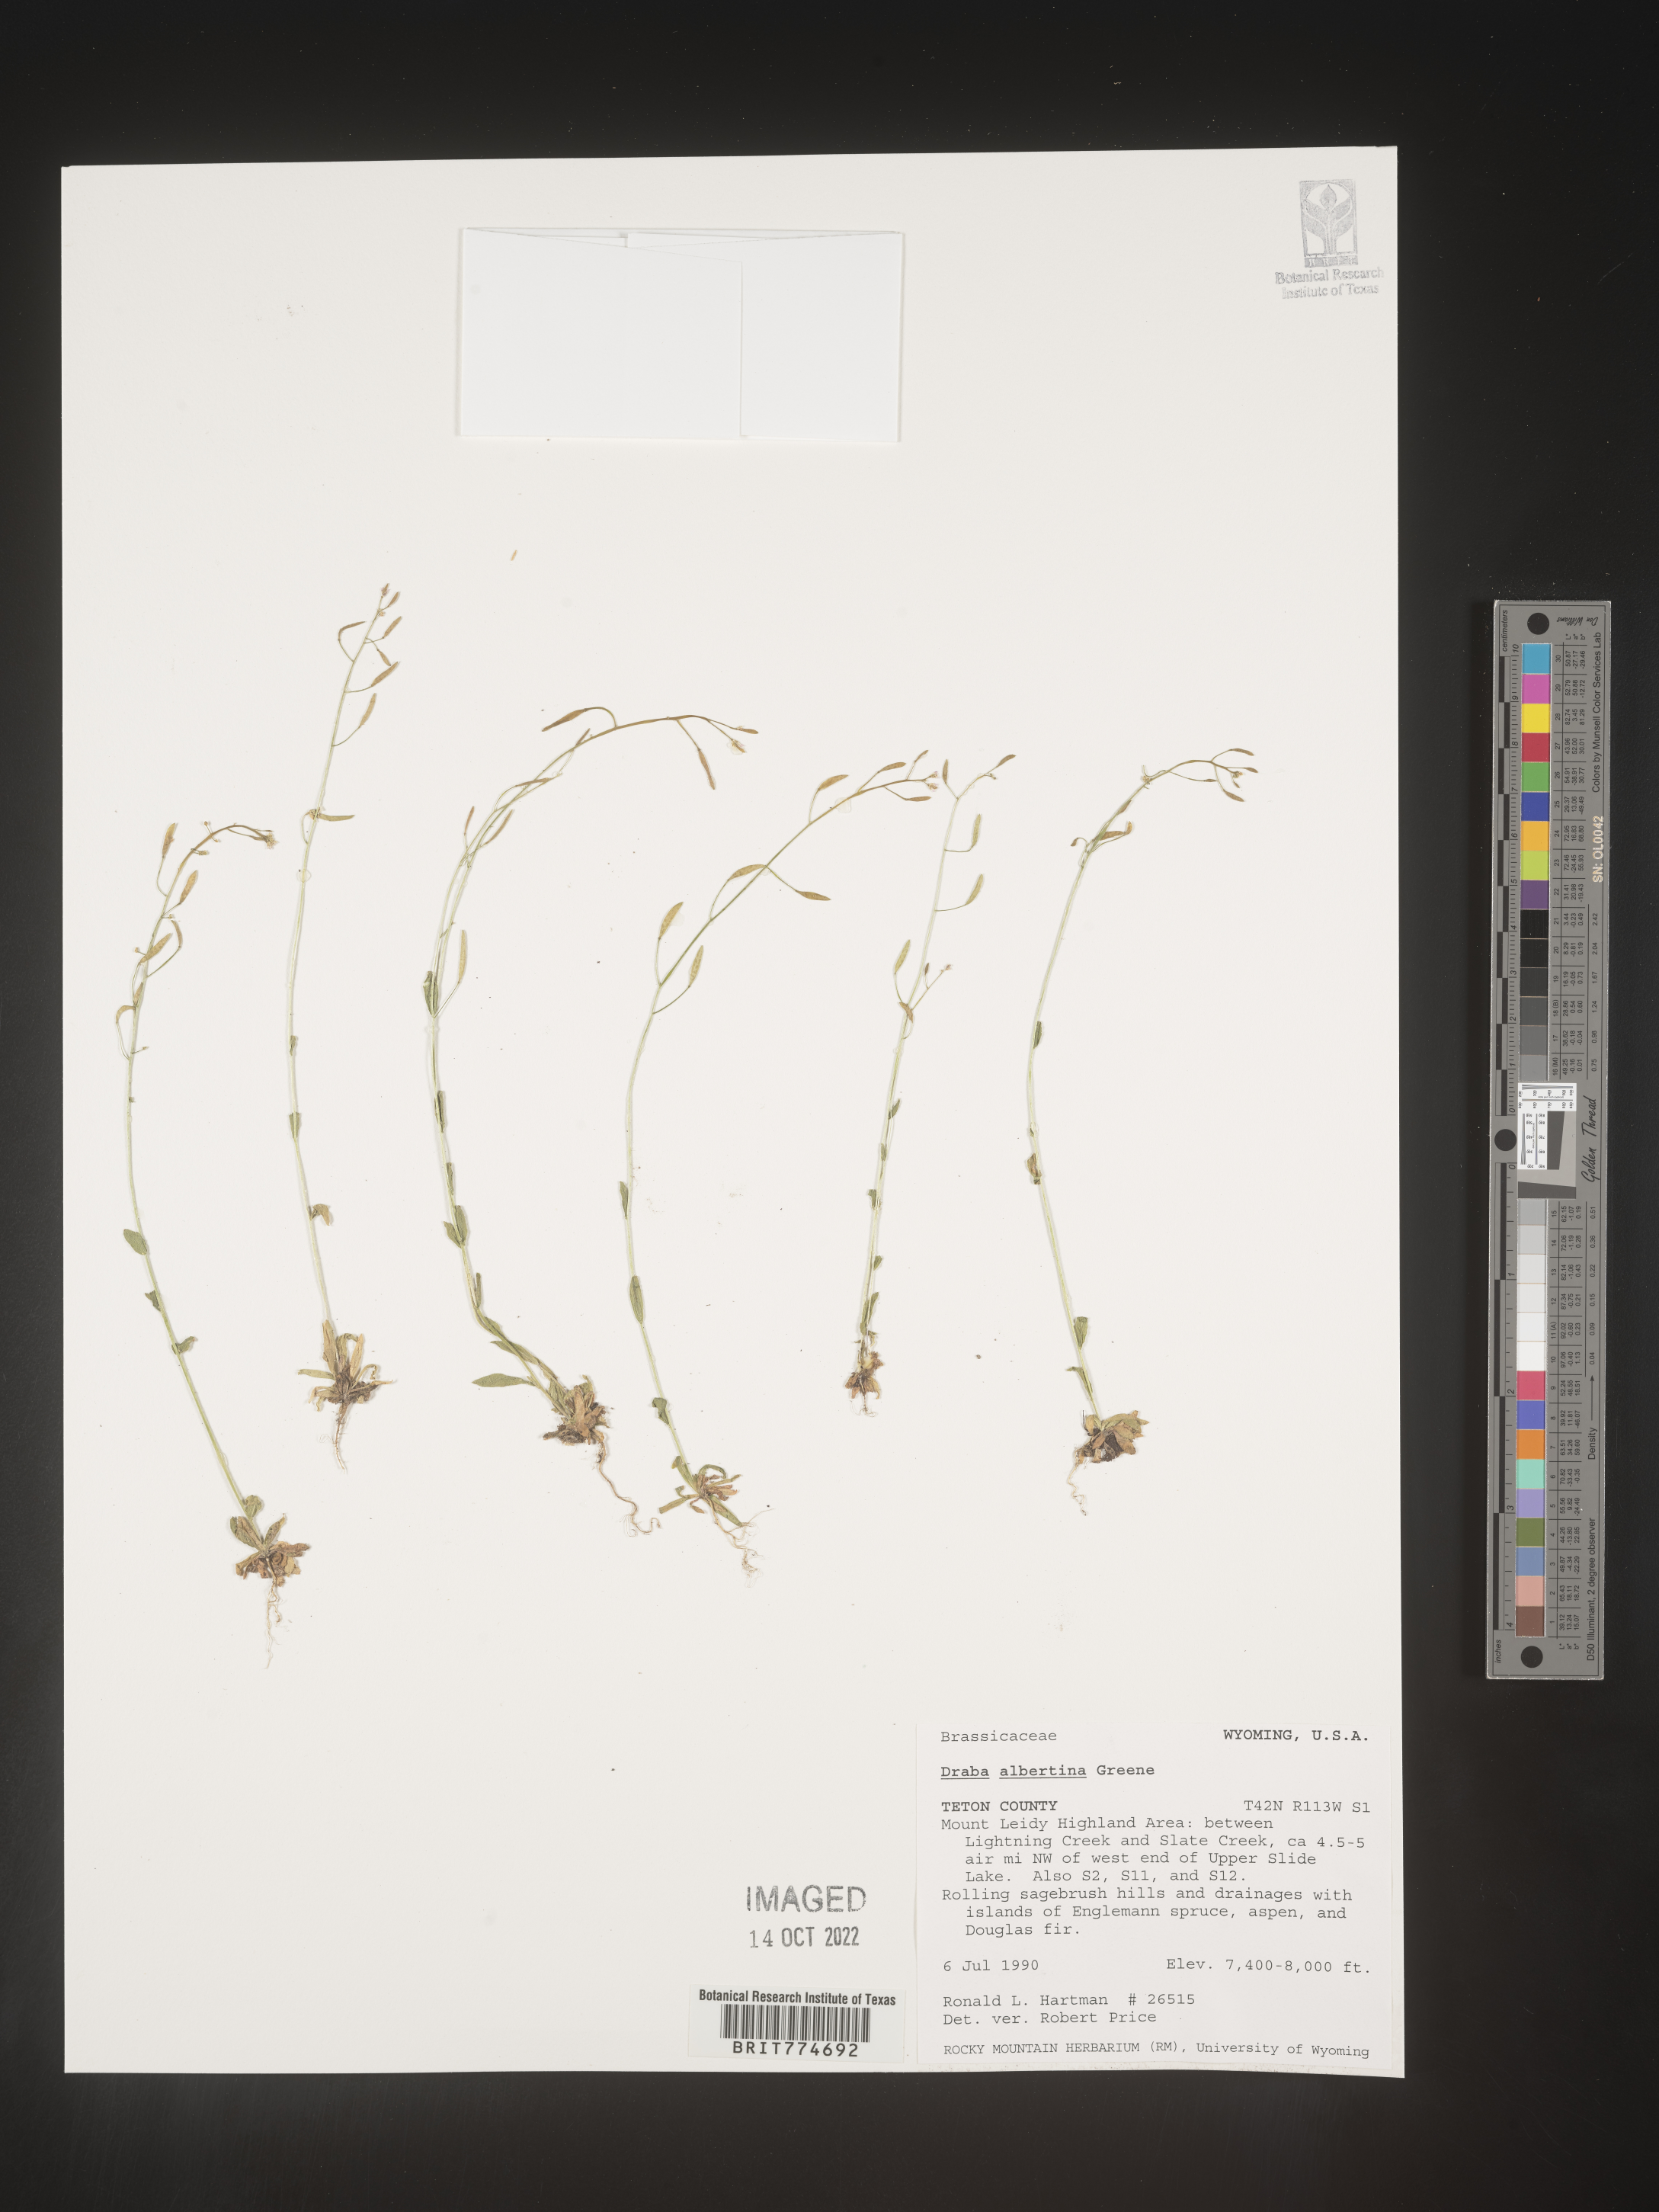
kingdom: Plantae
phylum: Tracheophyta
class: Magnoliopsida
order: Brassicales
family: Brassicaceae
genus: Draba
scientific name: Draba
